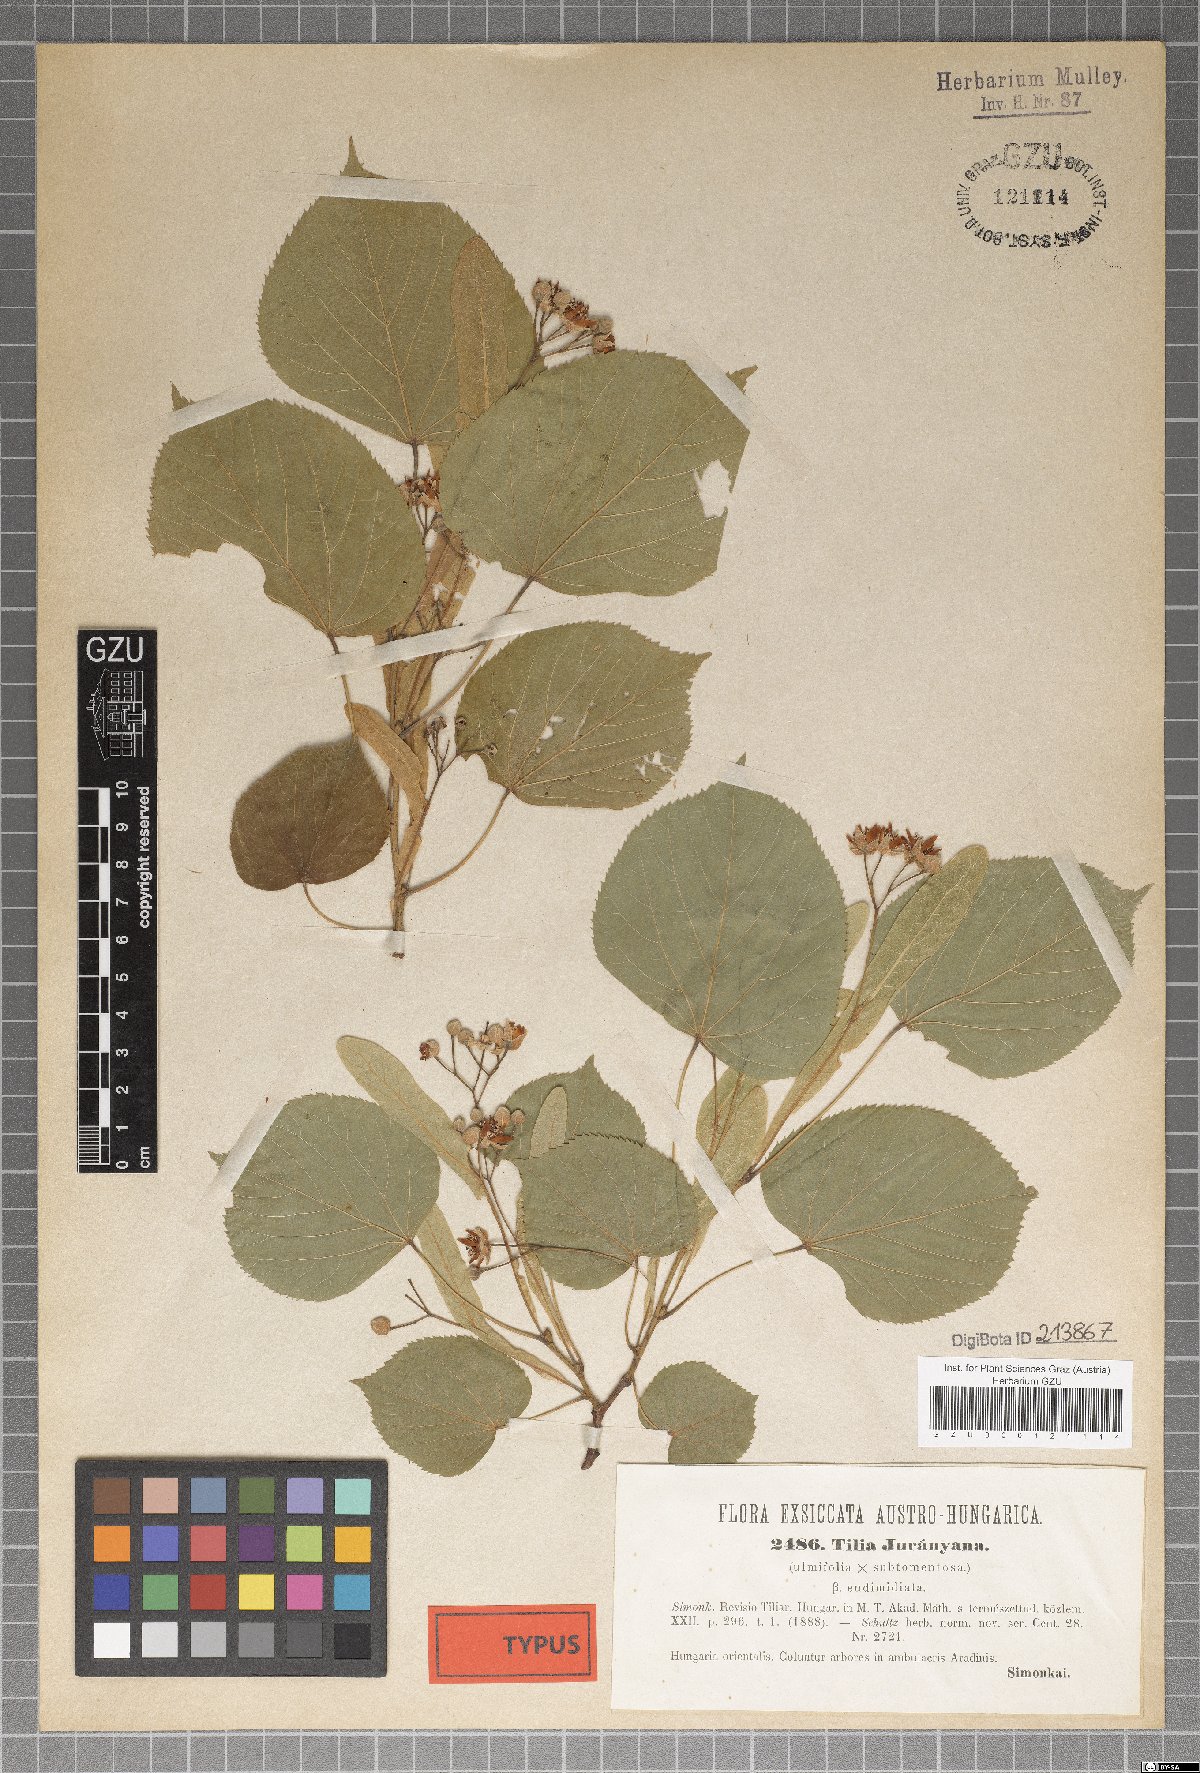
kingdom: Plantae
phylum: Tracheophyta
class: Magnoliopsida
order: Malvales
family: Malvaceae
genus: Tilia
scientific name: Tilia juranyiana
